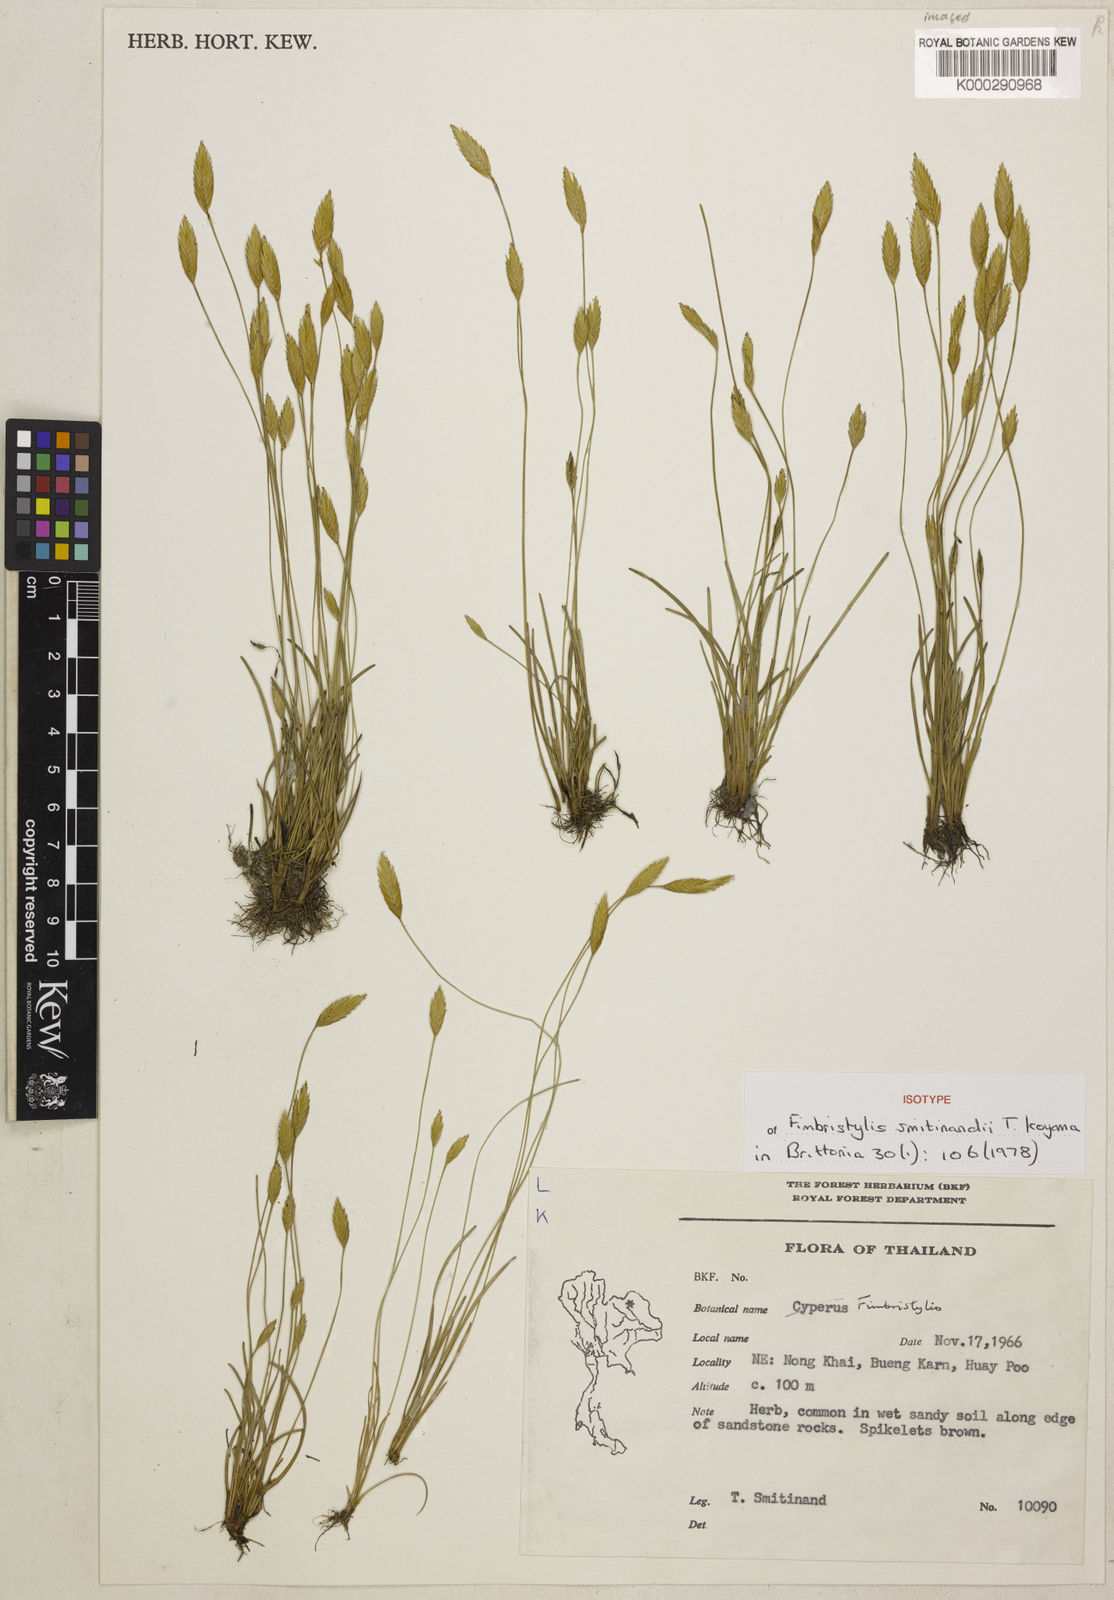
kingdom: Plantae
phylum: Tracheophyta
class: Liliopsida
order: Poales
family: Cyperaceae
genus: Fimbristylis
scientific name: Fimbristylis smitinandii
